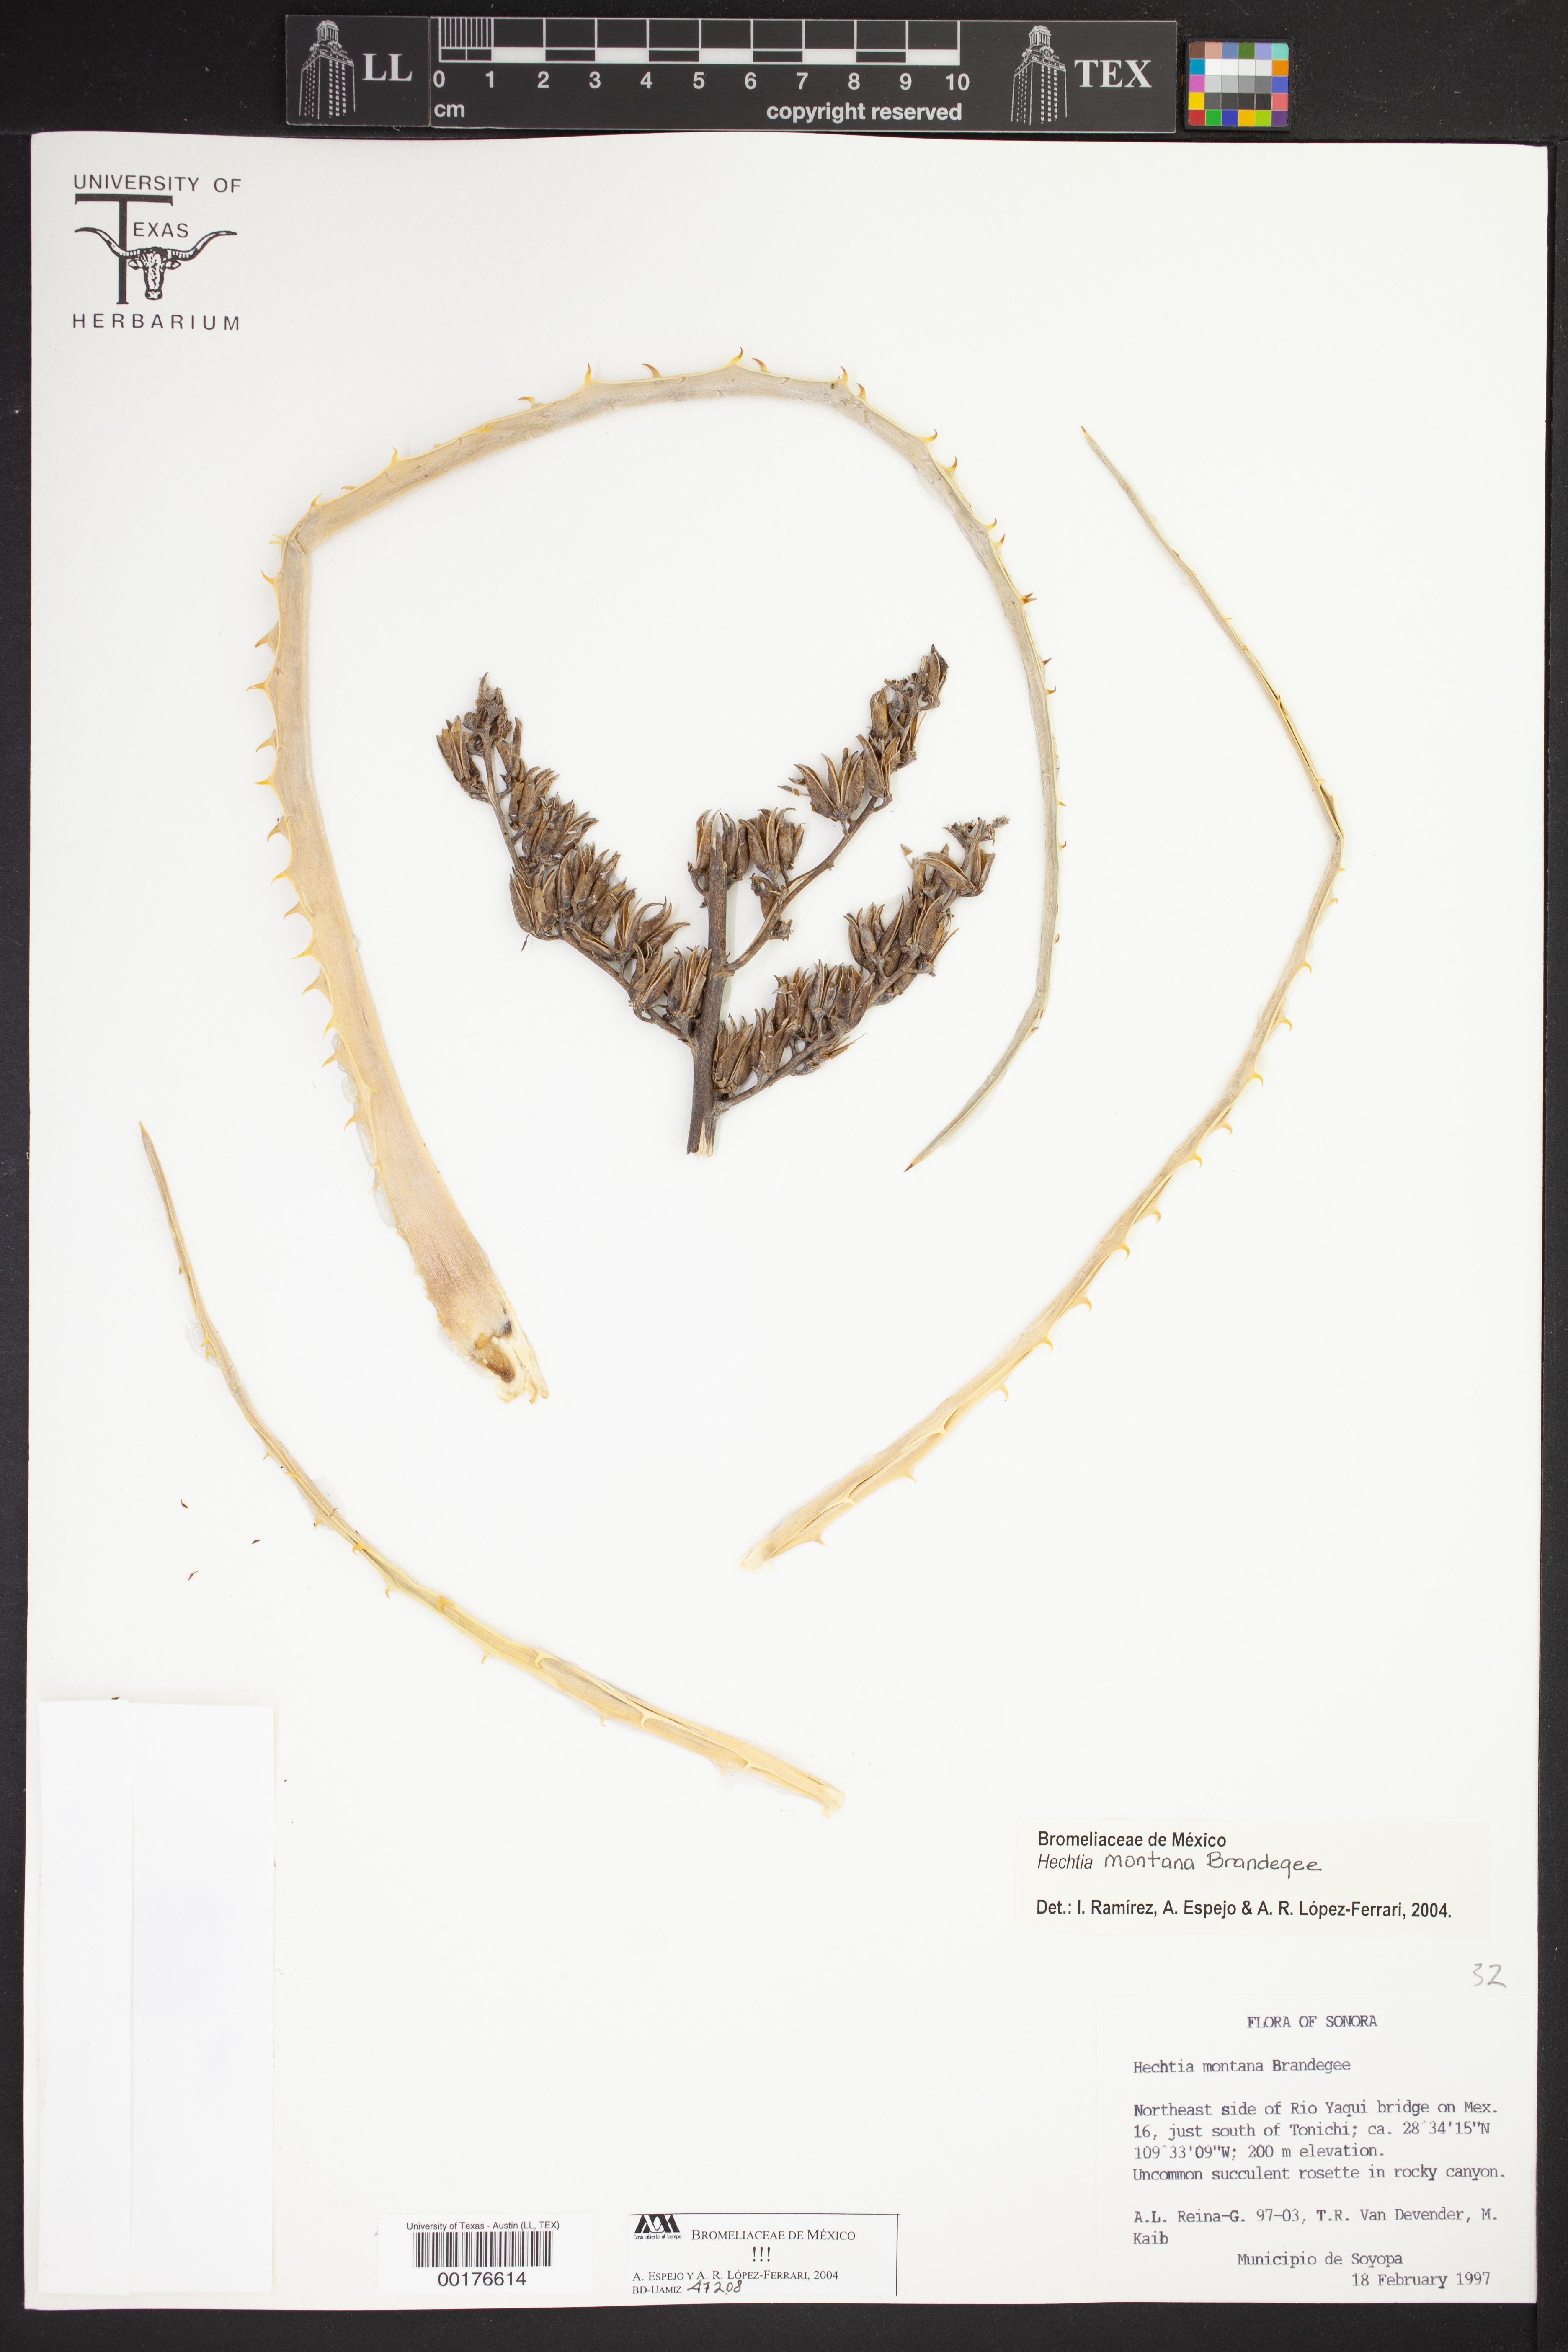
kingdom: Plantae
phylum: Tracheophyta
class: Liliopsida
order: Poales
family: Bromeliaceae
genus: Hechtia
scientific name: Hechtia montana
